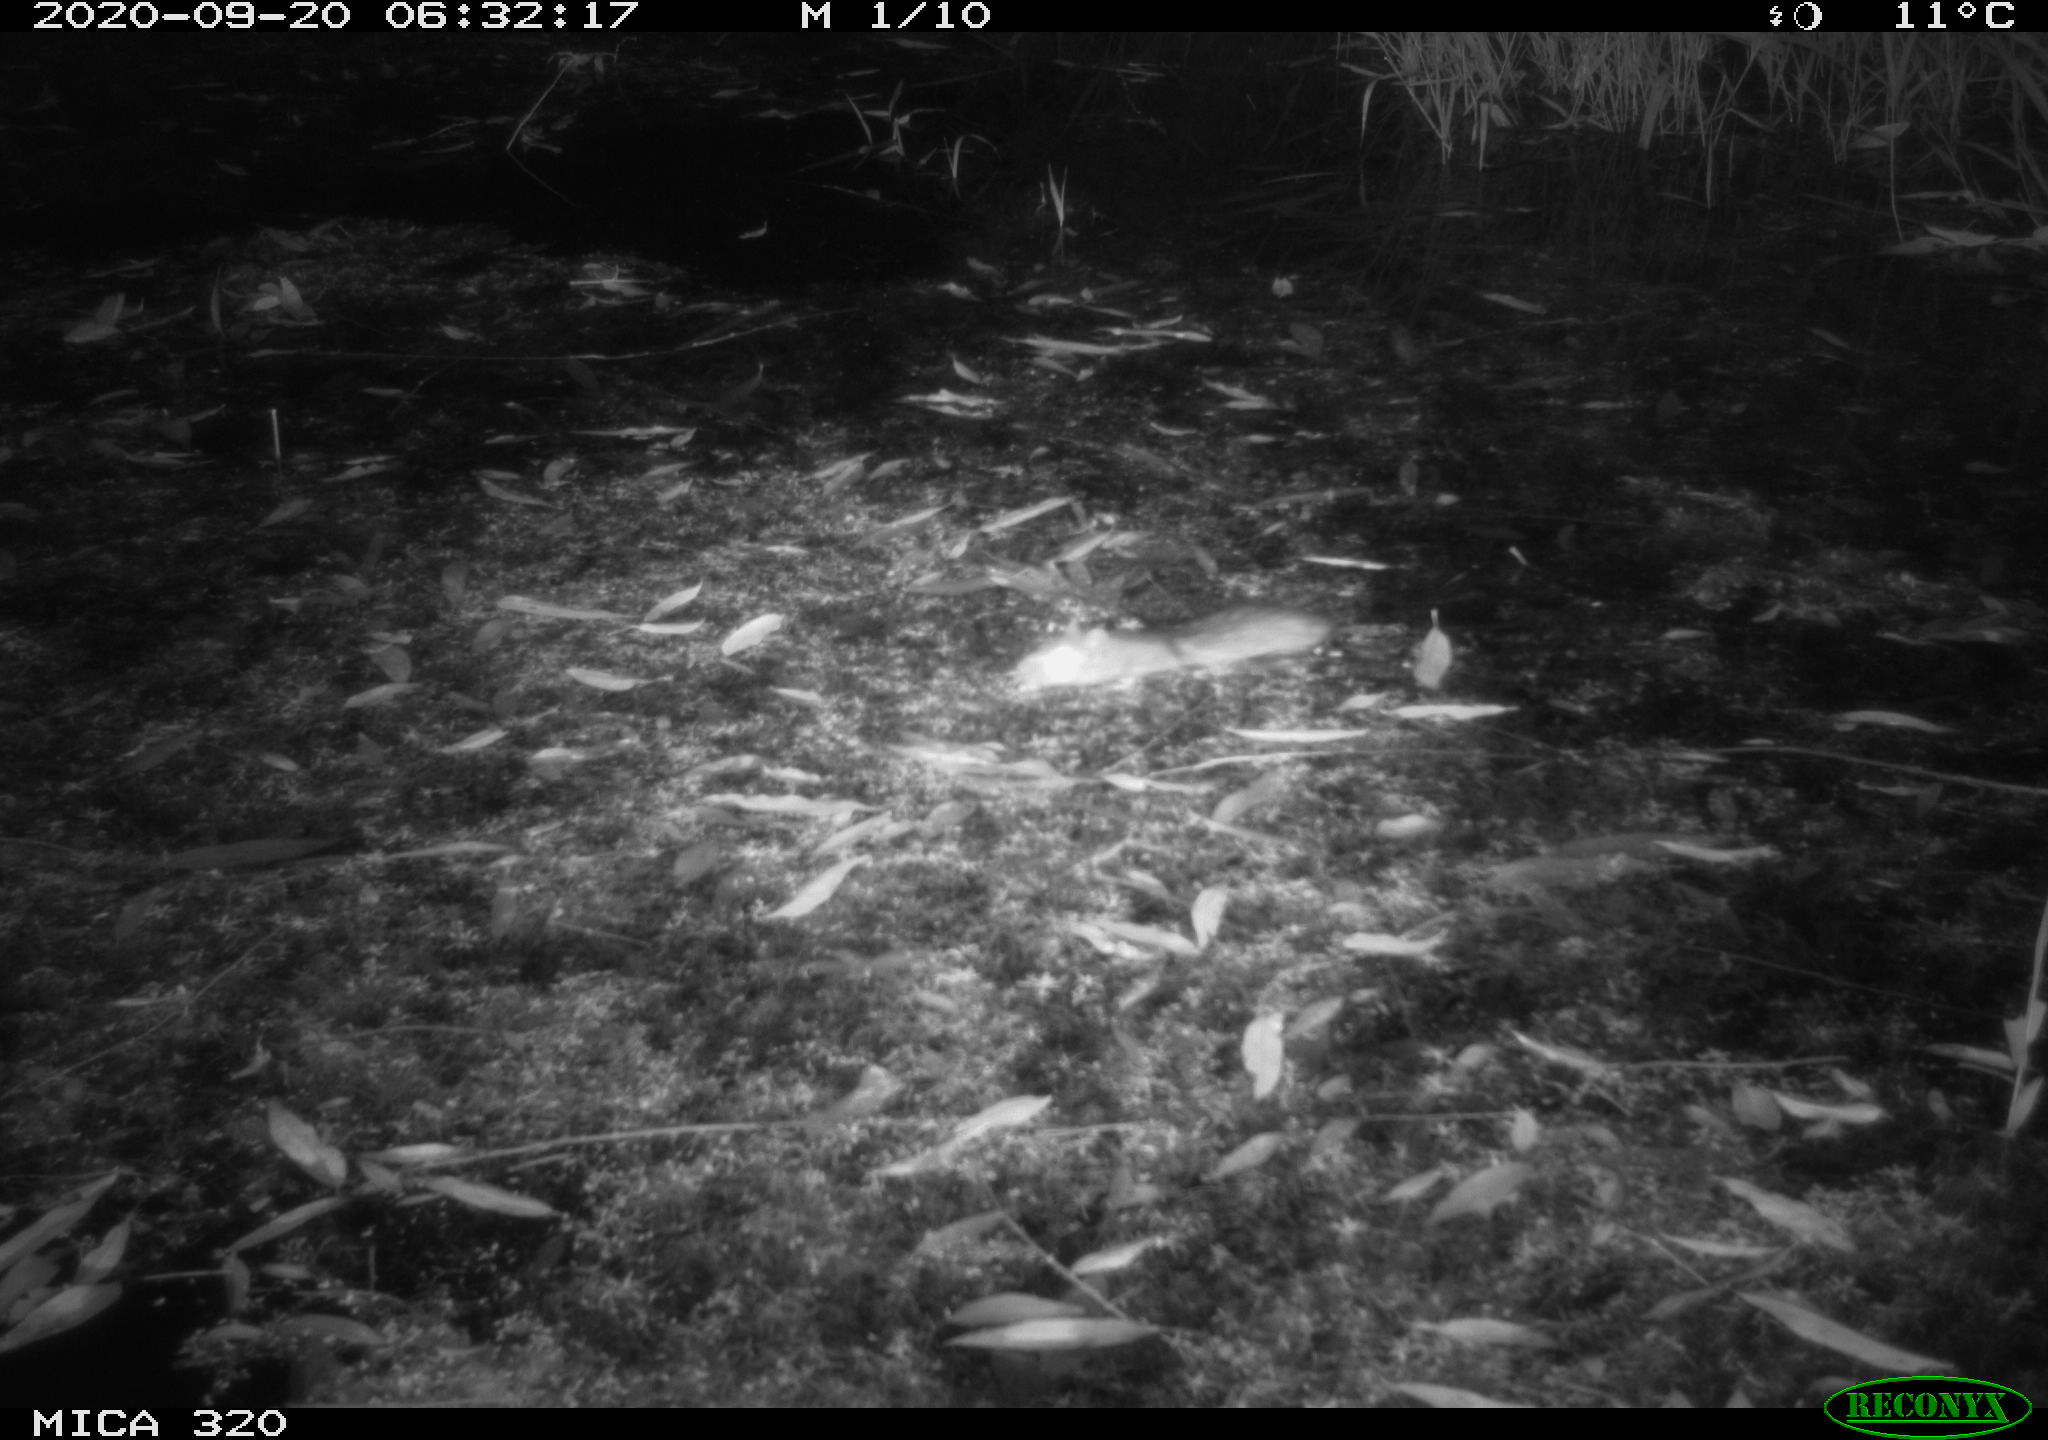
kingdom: Animalia
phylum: Chordata
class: Mammalia
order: Rodentia
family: Muridae
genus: Rattus
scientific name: Rattus norvegicus
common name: Brown rat
